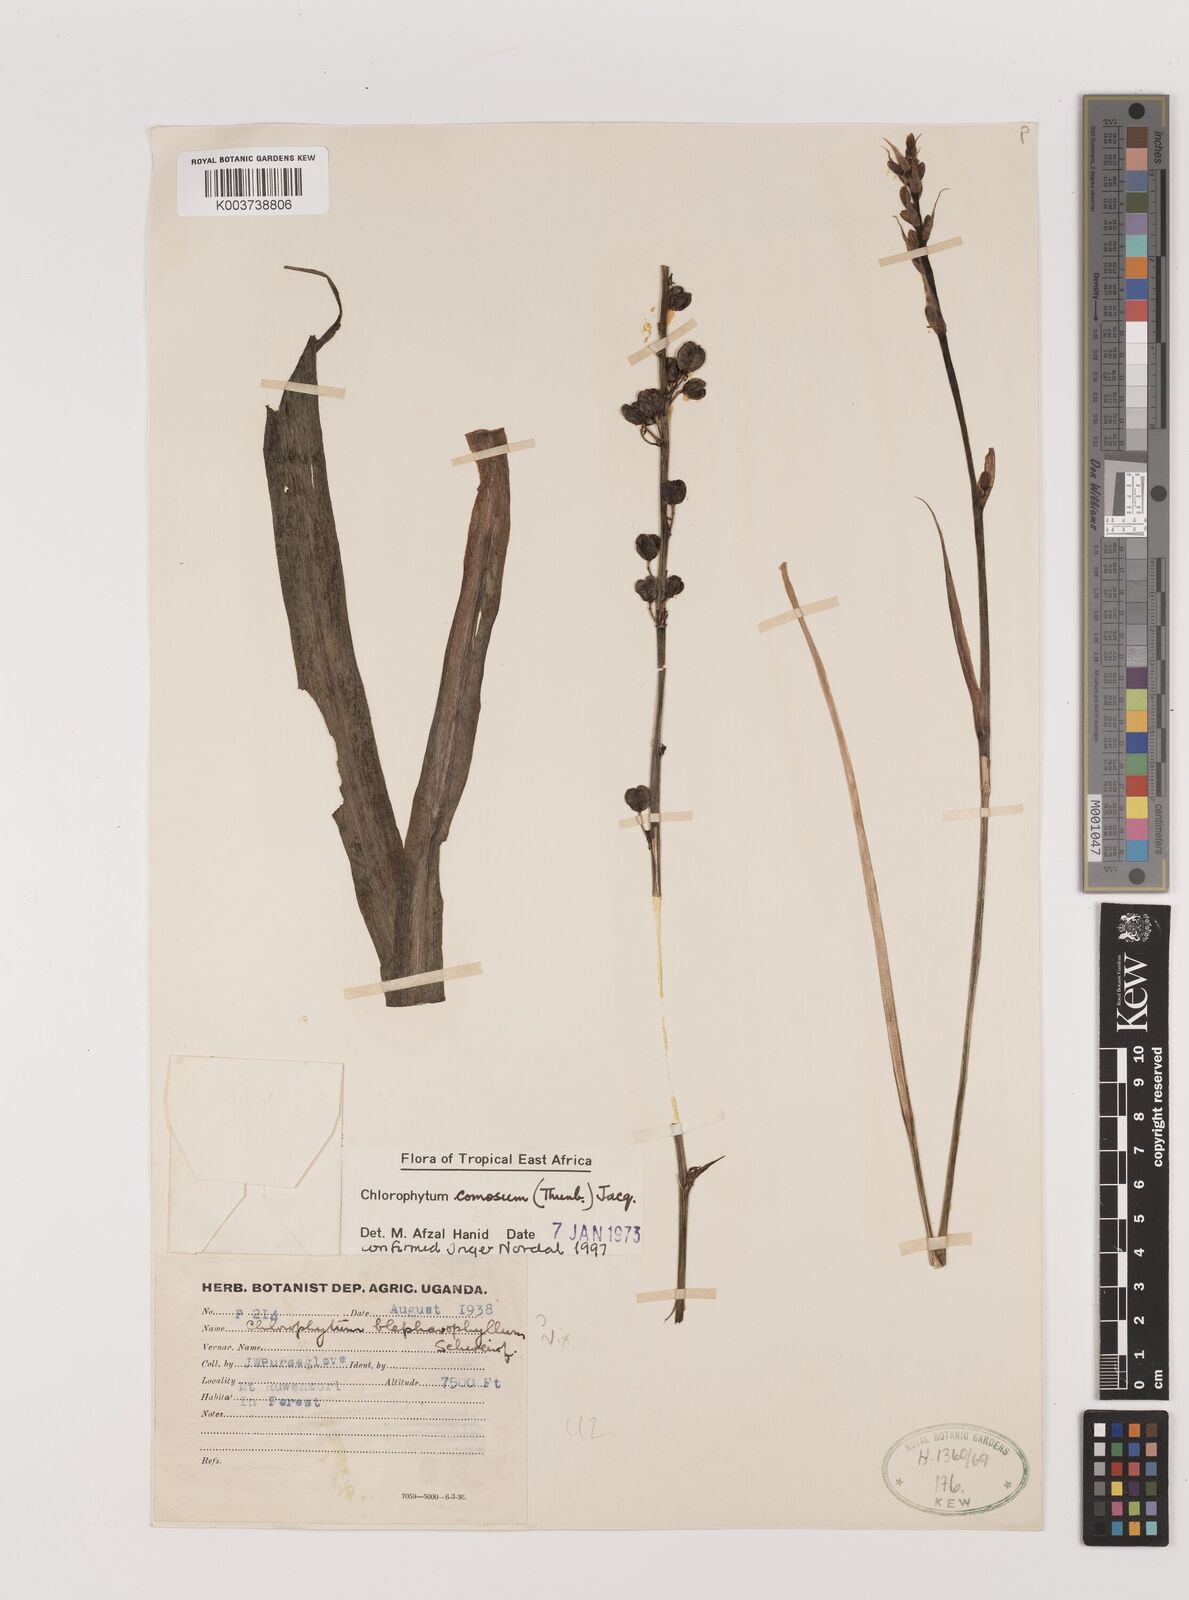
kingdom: Plantae
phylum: Tracheophyta
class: Liliopsida
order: Asparagales
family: Asparagaceae
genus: Chlorophytum
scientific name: Chlorophytum comosum
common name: Spider plant
